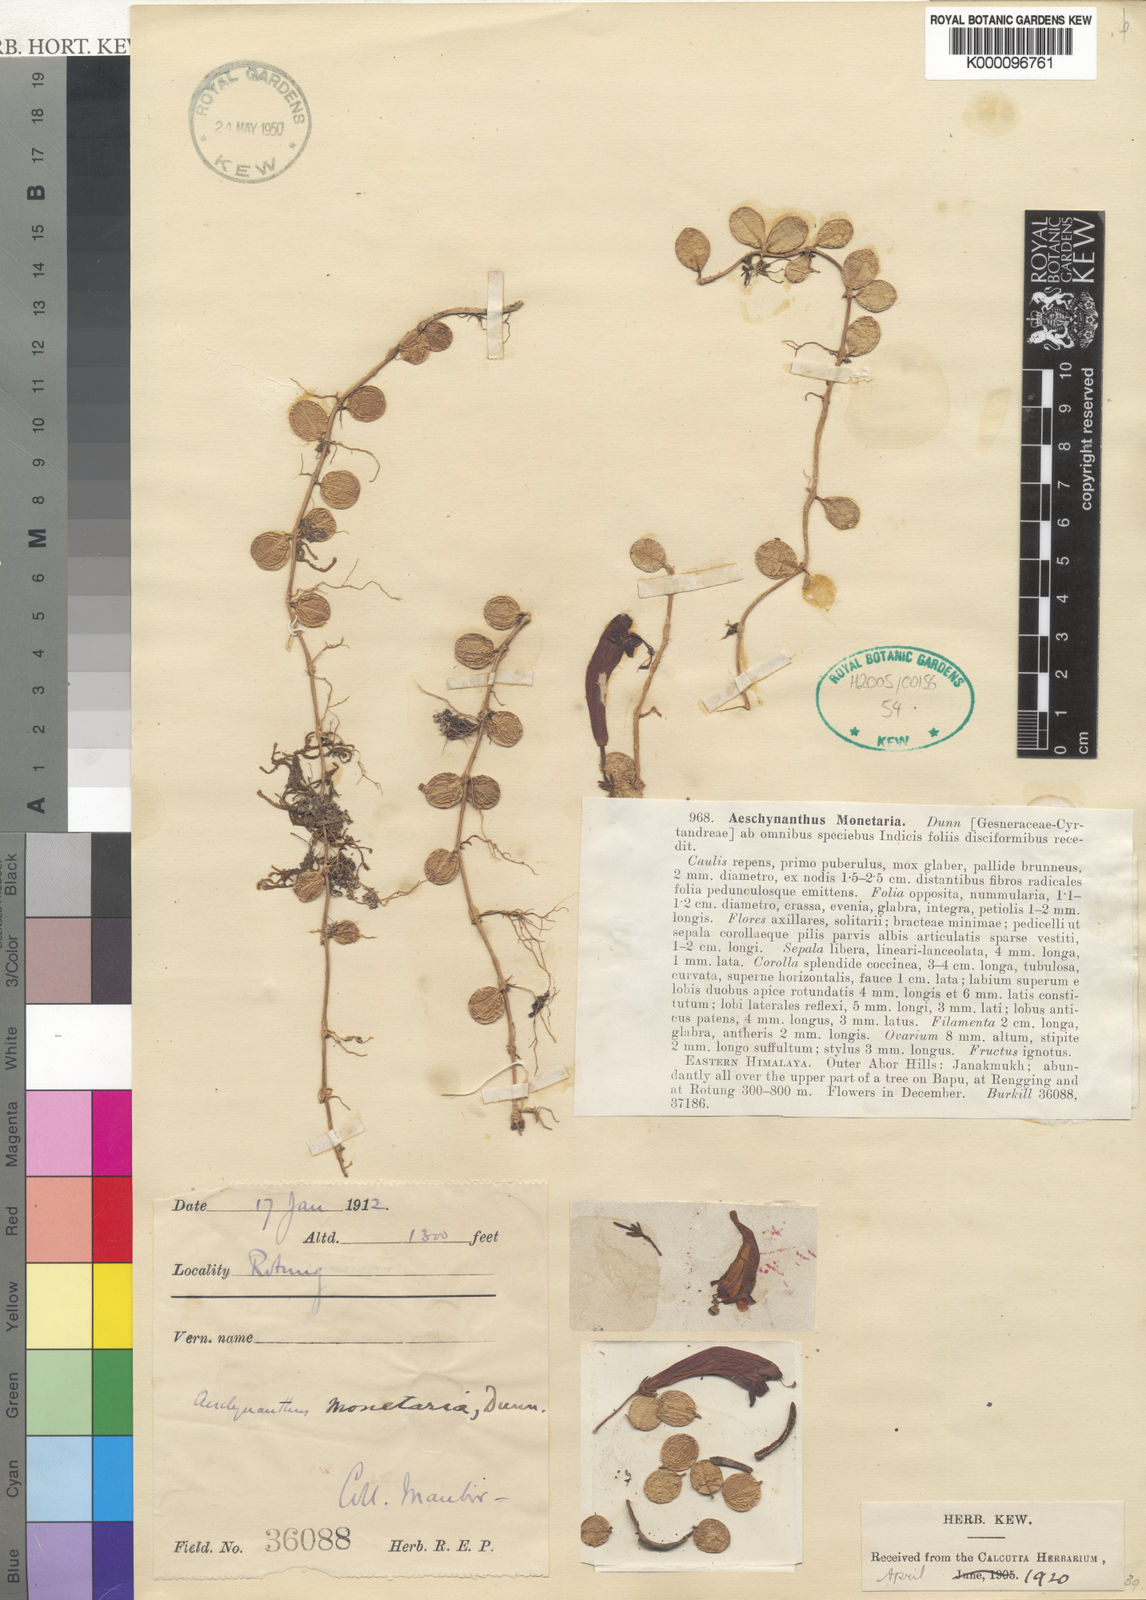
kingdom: Plantae
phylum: Tracheophyta
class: Magnoliopsida
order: Lamiales
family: Gesneriaceae
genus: Aeschynanthus
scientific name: Aeschynanthus monetarius
